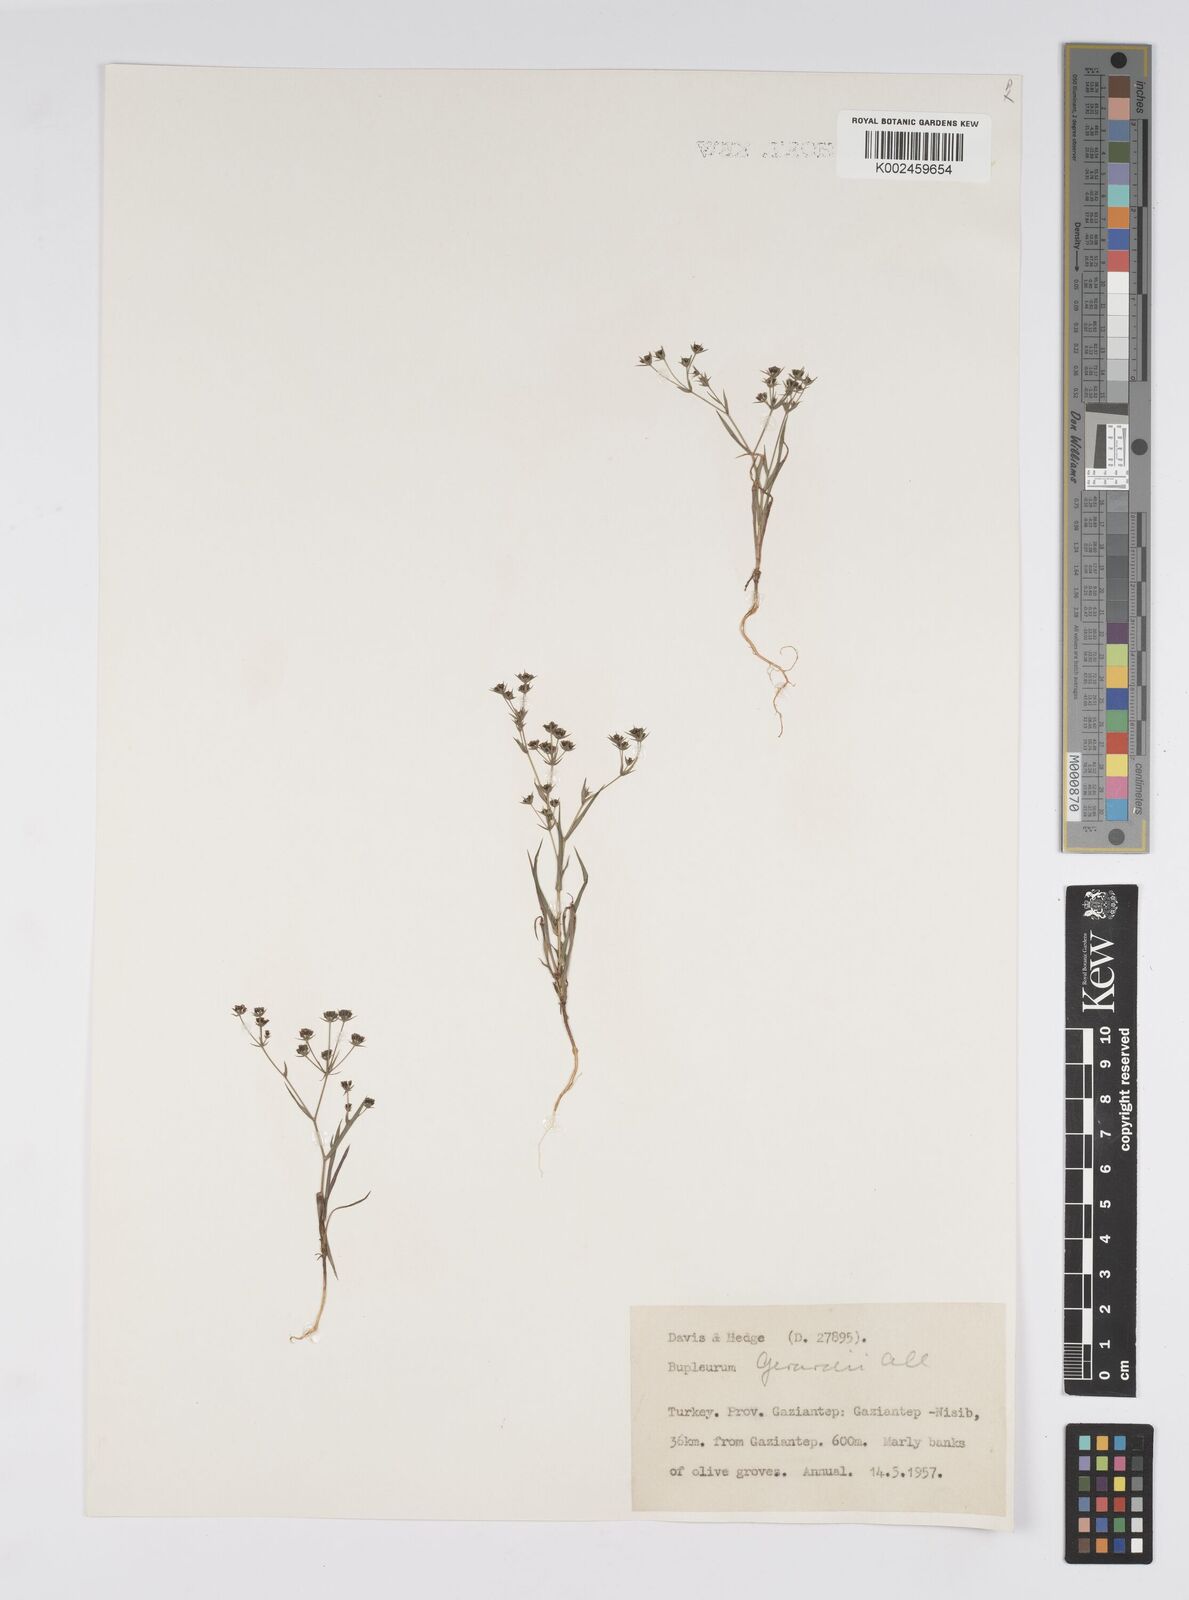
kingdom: Plantae
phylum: Tracheophyta
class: Magnoliopsida
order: Apiales
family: Apiaceae
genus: Bupleurum
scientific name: Bupleurum gerardi
